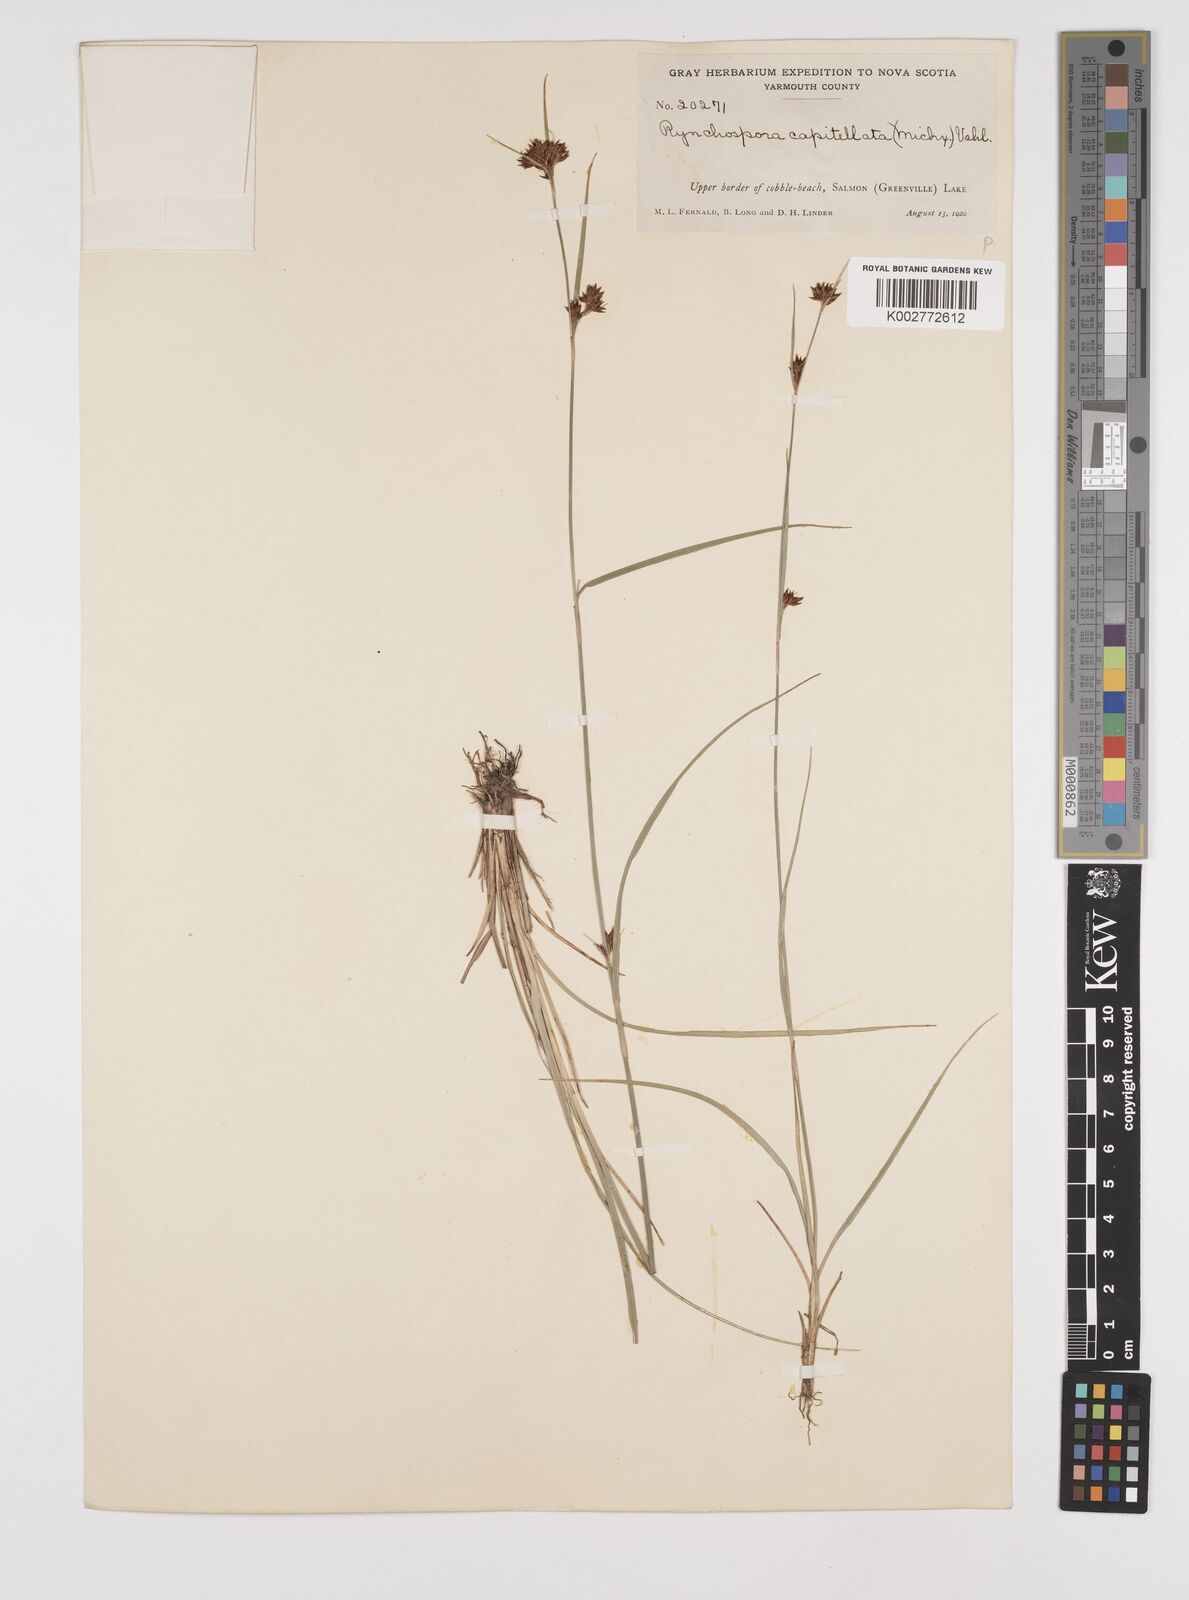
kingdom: Plantae
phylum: Tracheophyta
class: Liliopsida
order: Poales
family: Cyperaceae
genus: Rhynchospora
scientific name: Rhynchospora capitellata
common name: Brownish beaksedge
